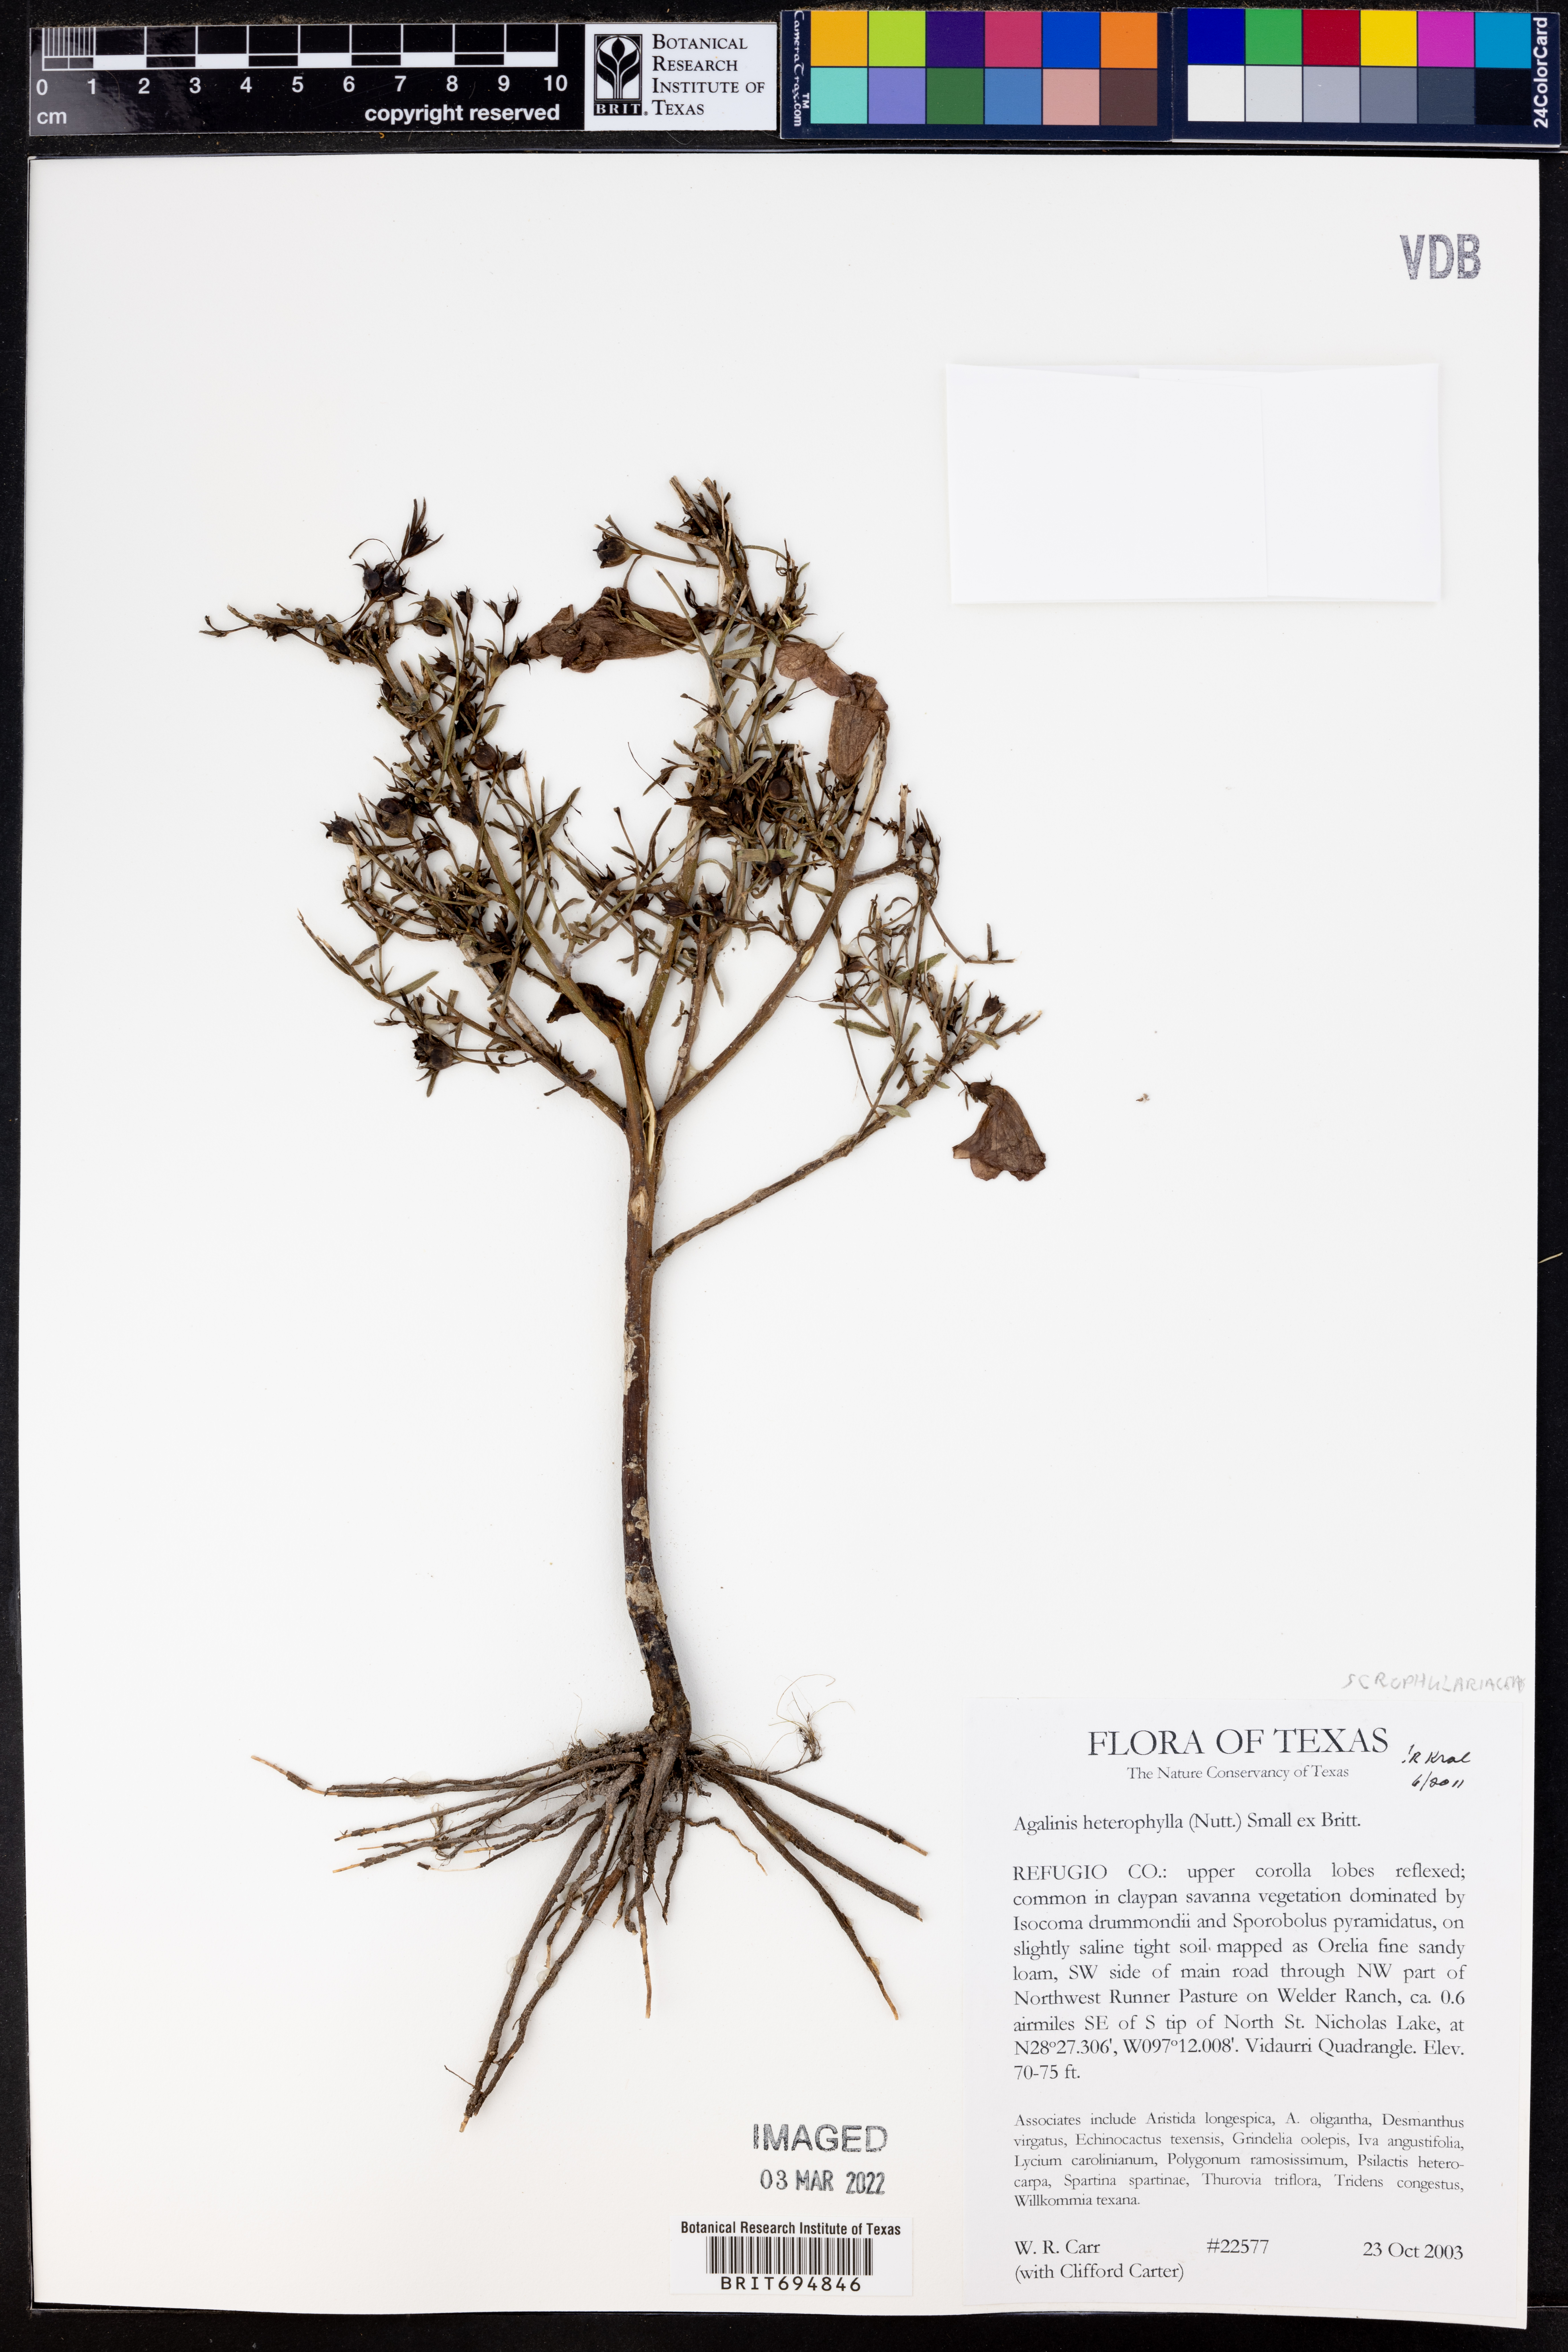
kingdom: Plantae
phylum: Tracheophyta
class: Magnoliopsida
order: Lamiales
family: Orobanchaceae
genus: Agalinis
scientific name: Agalinis heterophylla
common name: Prairie agalinis
